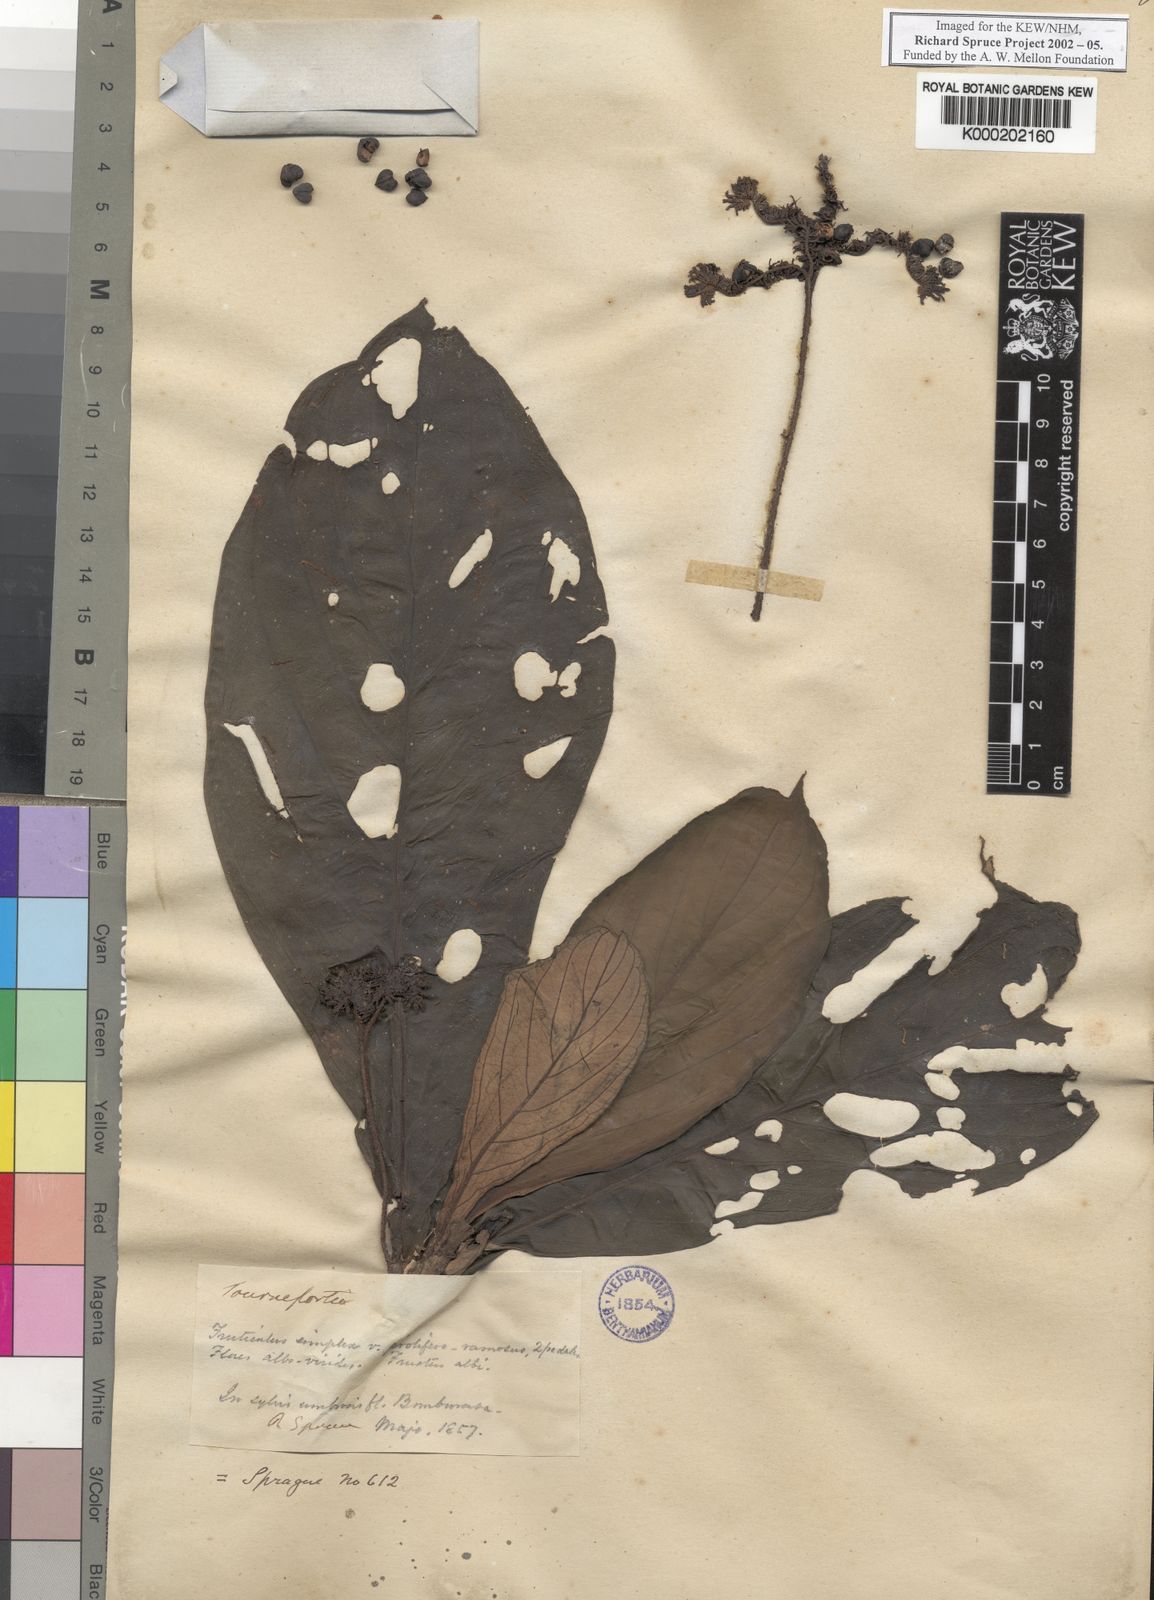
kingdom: Plantae
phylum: Tracheophyta
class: Magnoliopsida
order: Boraginales
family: Heliotropiaceae
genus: Heliotropium
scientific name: Heliotropium gigantifolium
